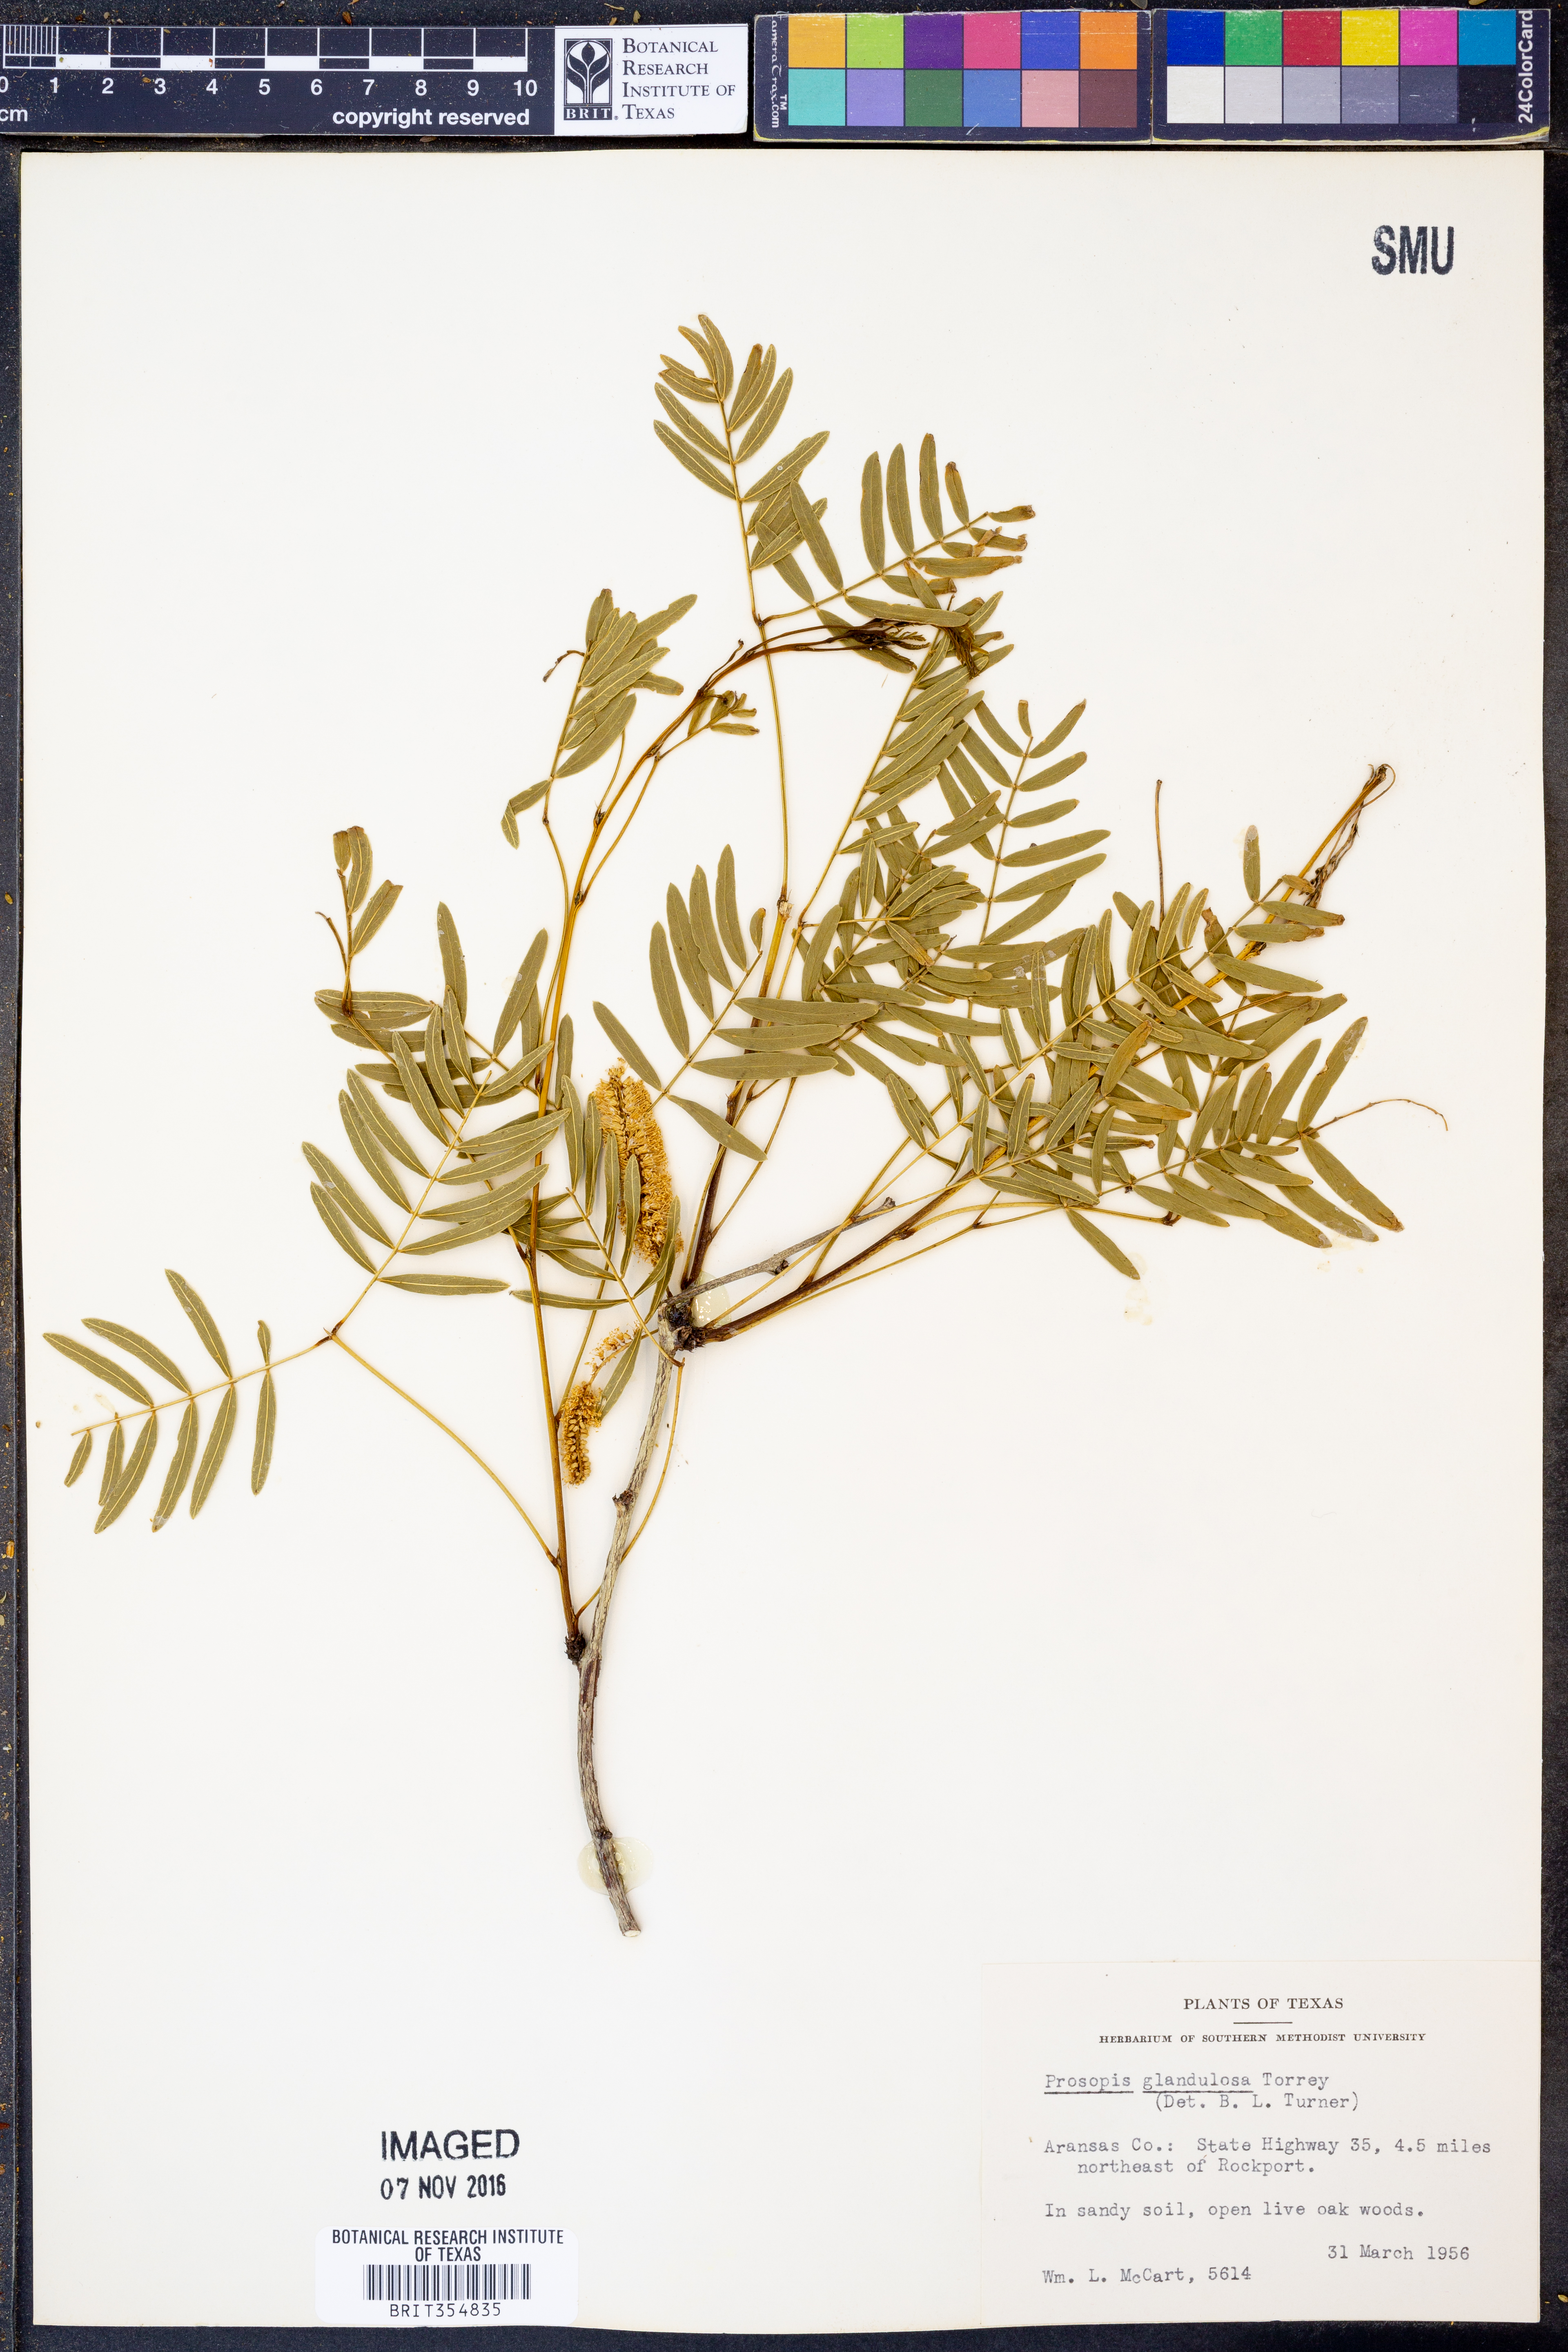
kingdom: Plantae
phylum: Tracheophyta
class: Magnoliopsida
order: Fabales
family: Fabaceae
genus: Prosopis
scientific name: Prosopis glandulosa
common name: Honey mesquite
